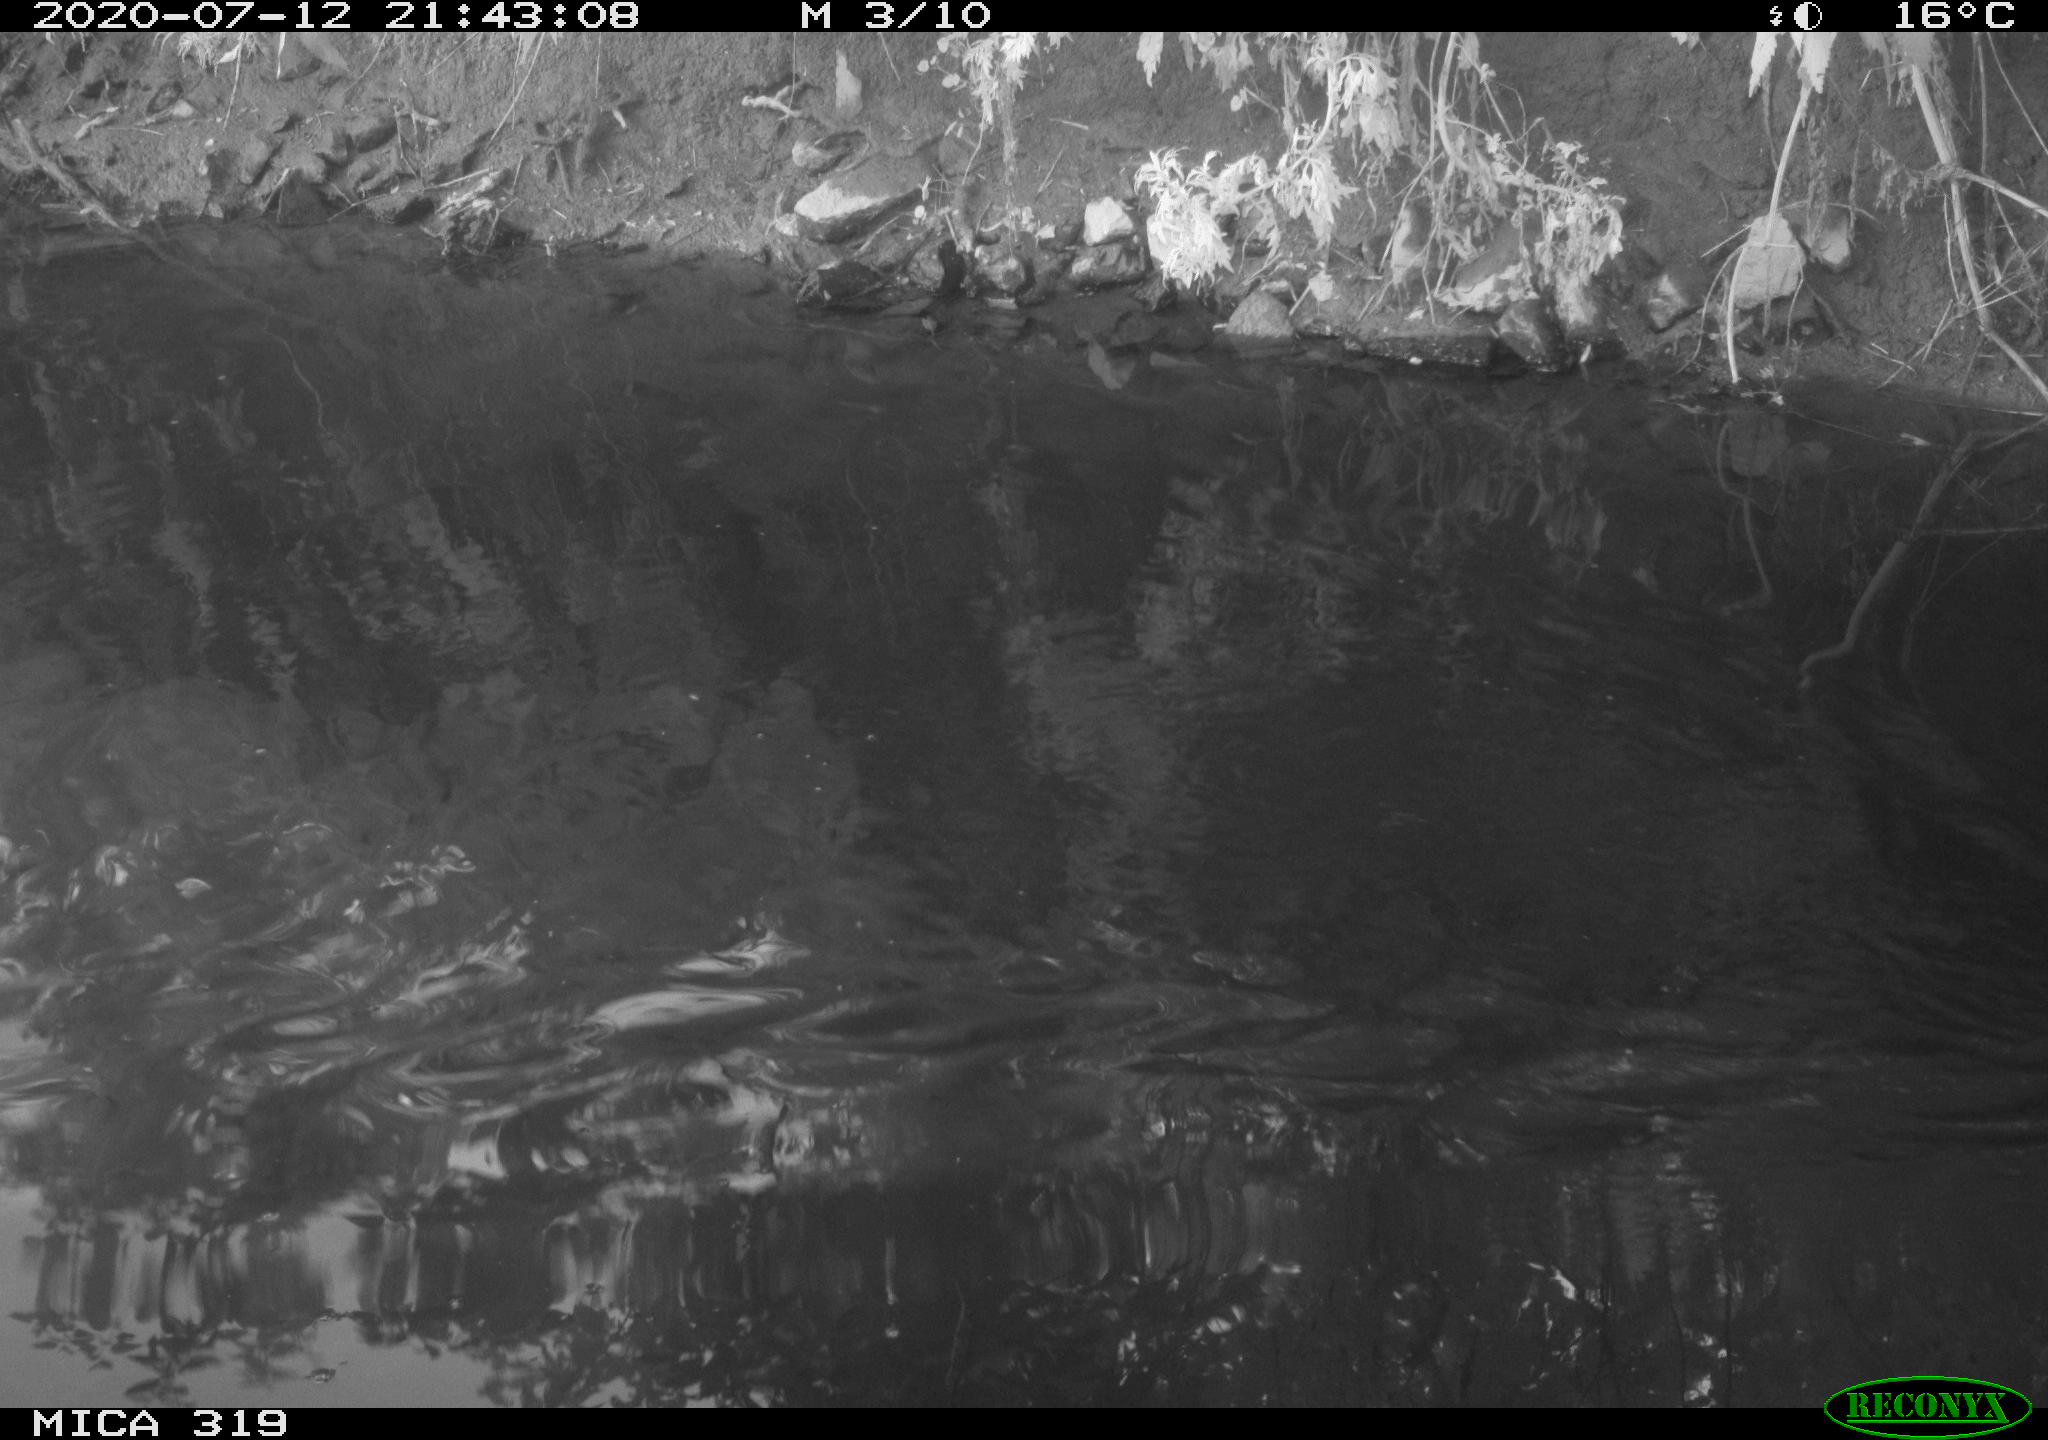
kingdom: Animalia
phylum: Chordata
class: Aves
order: Anseriformes
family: Anatidae
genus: Anas
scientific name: Anas platyrhynchos
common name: Mallard
